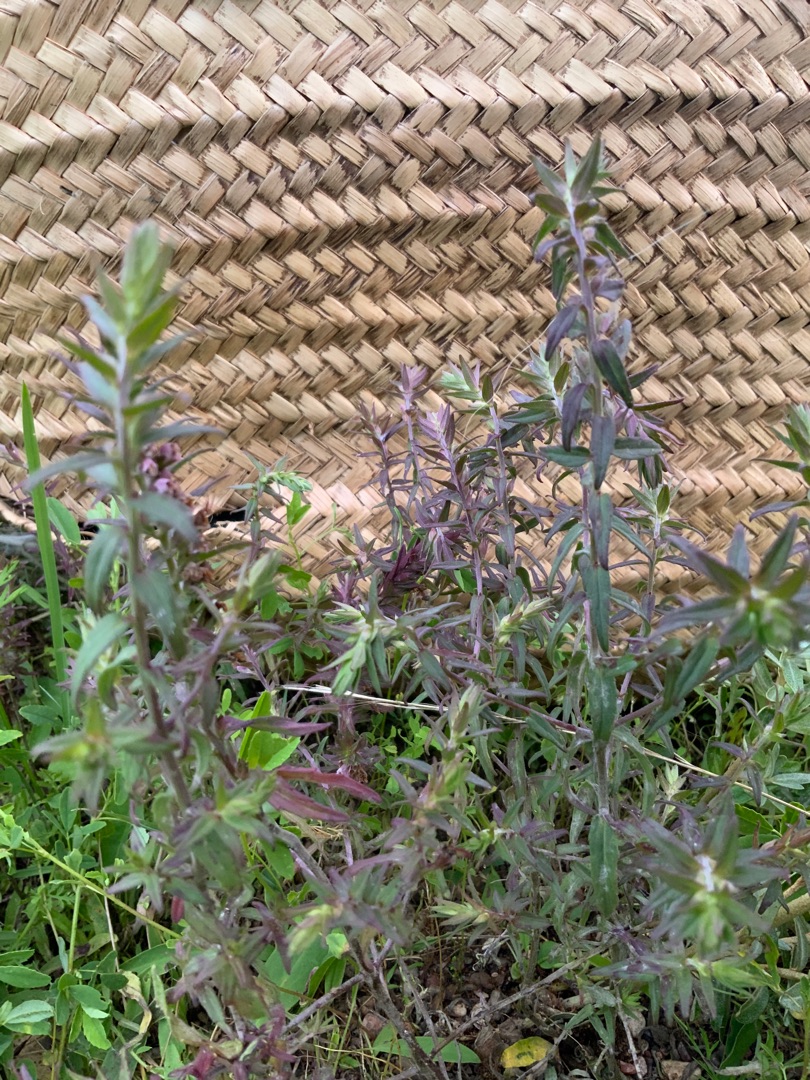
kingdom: Plantae
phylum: Tracheophyta
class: Magnoliopsida
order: Lamiales
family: Orobanchaceae
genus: Odontites
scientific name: Odontites vulgaris
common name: Høst-rødtop
